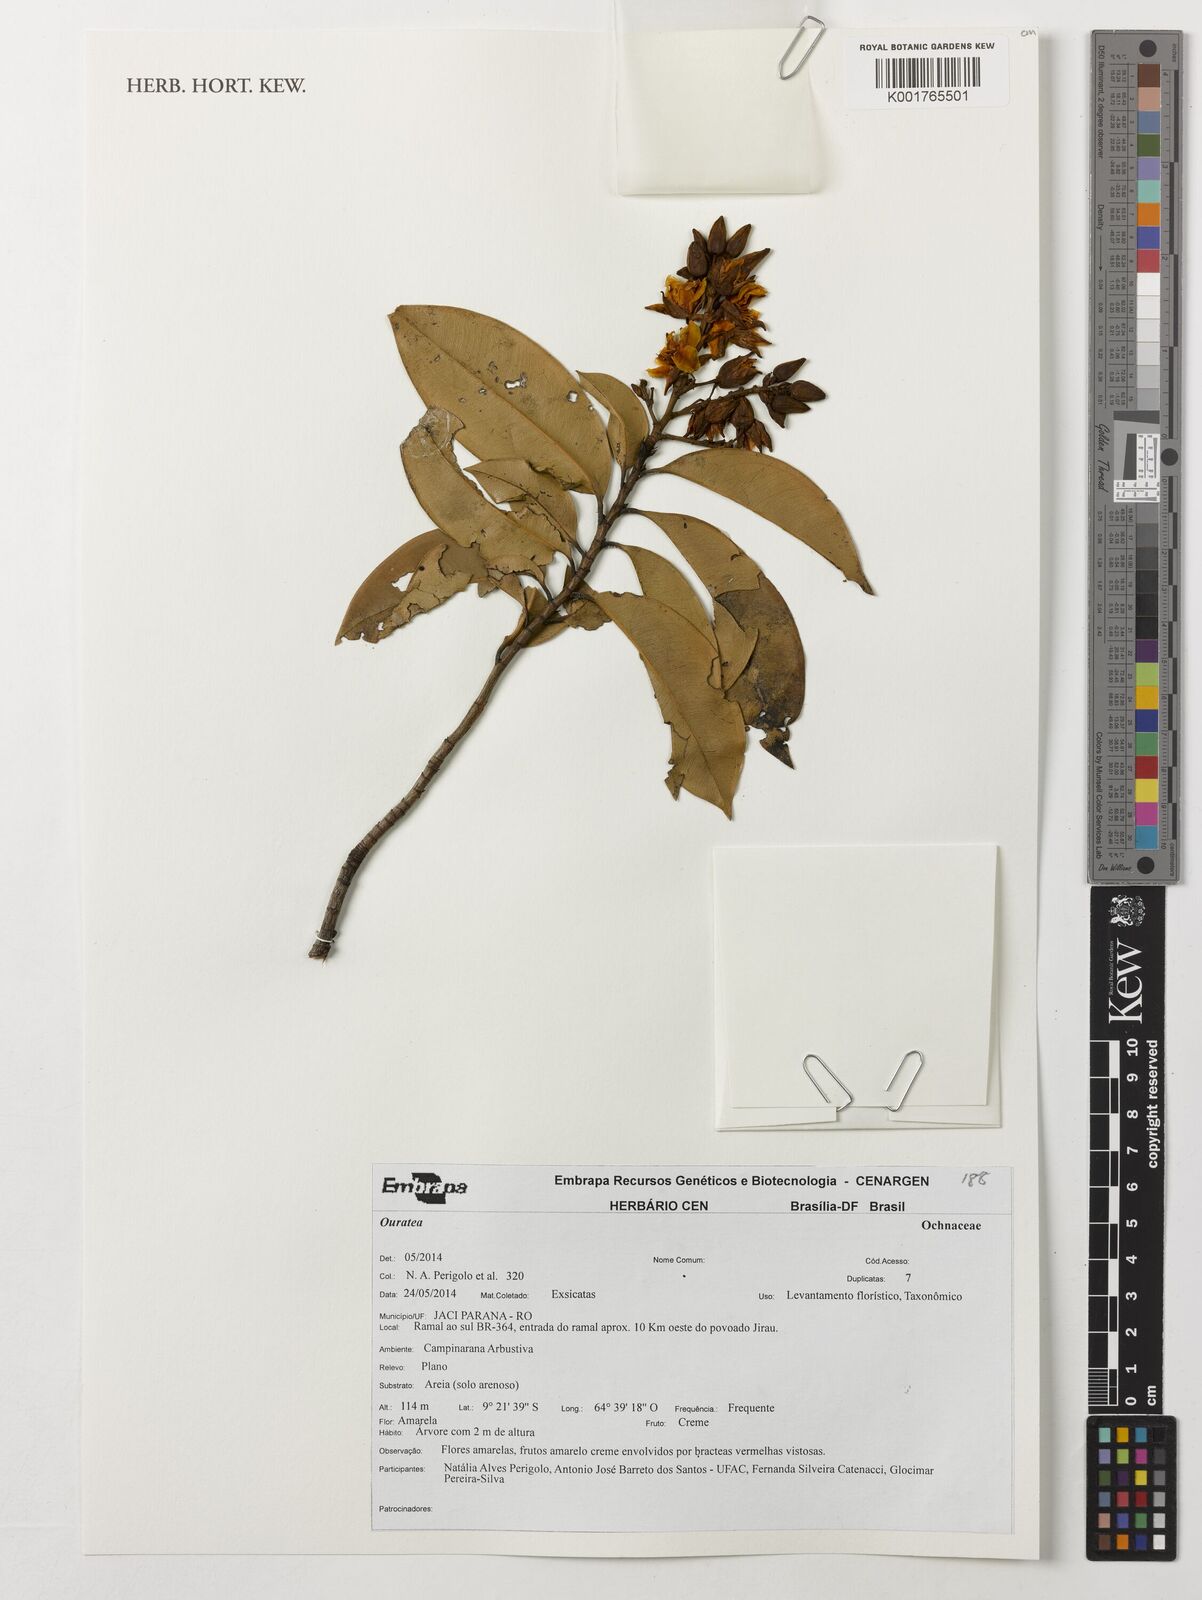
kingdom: Plantae
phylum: Tracheophyta
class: Magnoliopsida
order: Malpighiales
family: Ochnaceae
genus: Ouratea
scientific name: Ouratea
